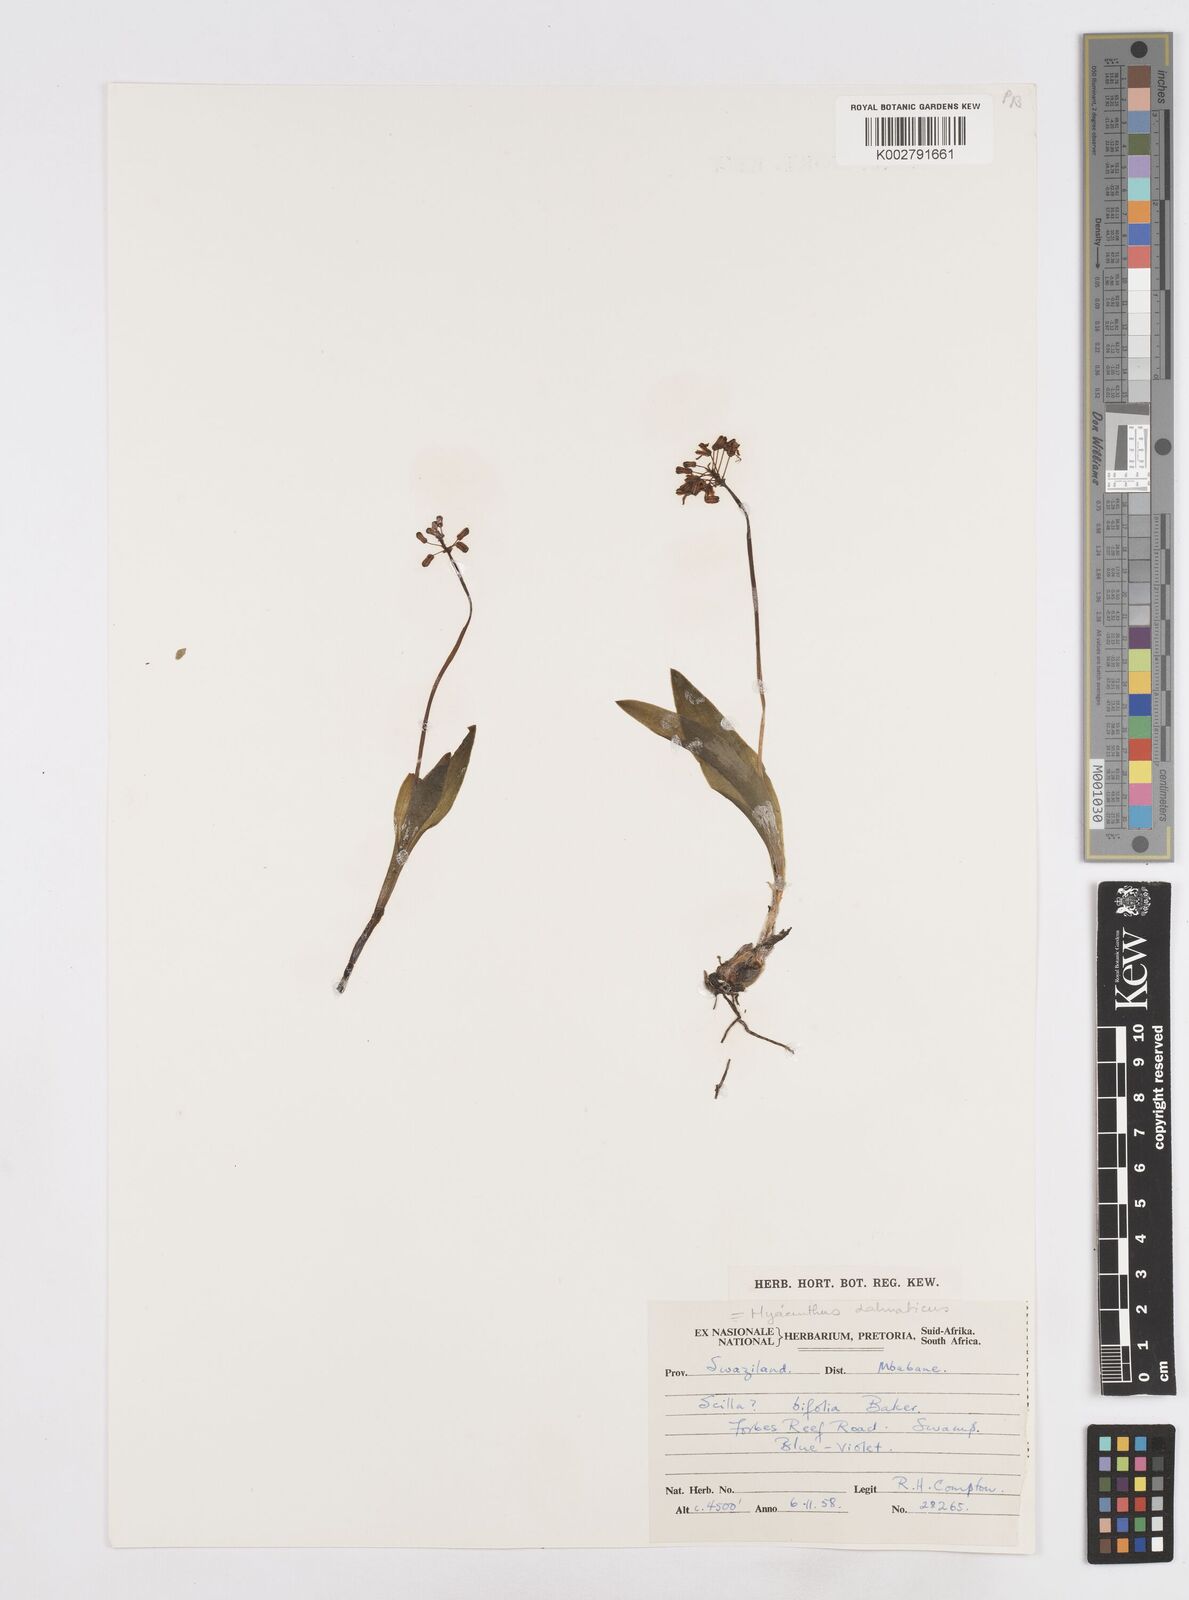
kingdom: Plantae
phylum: Tracheophyta
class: Liliopsida
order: Asparagales
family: Asparagaceae
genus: Scilla
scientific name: Scilla
